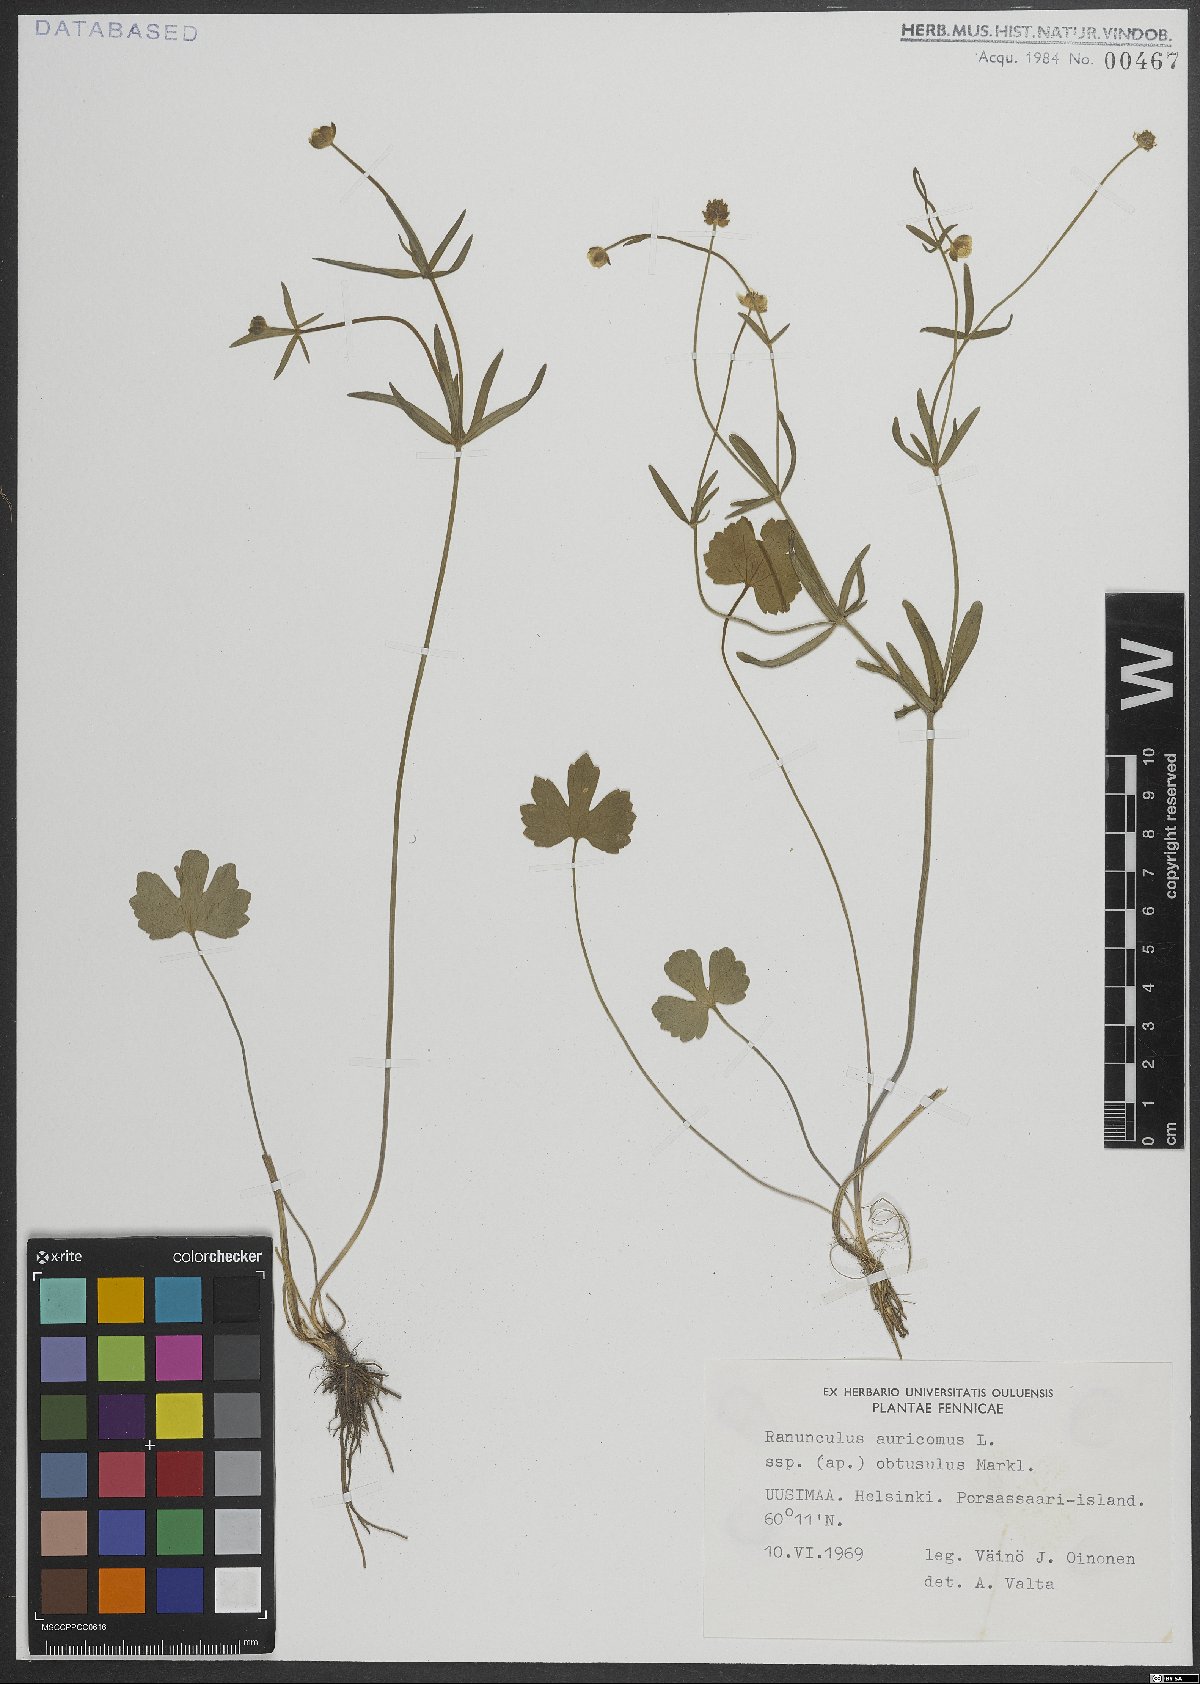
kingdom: Plantae
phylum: Tracheophyta
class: Magnoliopsida
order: Ranunculales
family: Ranunculaceae
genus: Ranunculus
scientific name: Ranunculus auricomus
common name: Goldilocks buttercup
